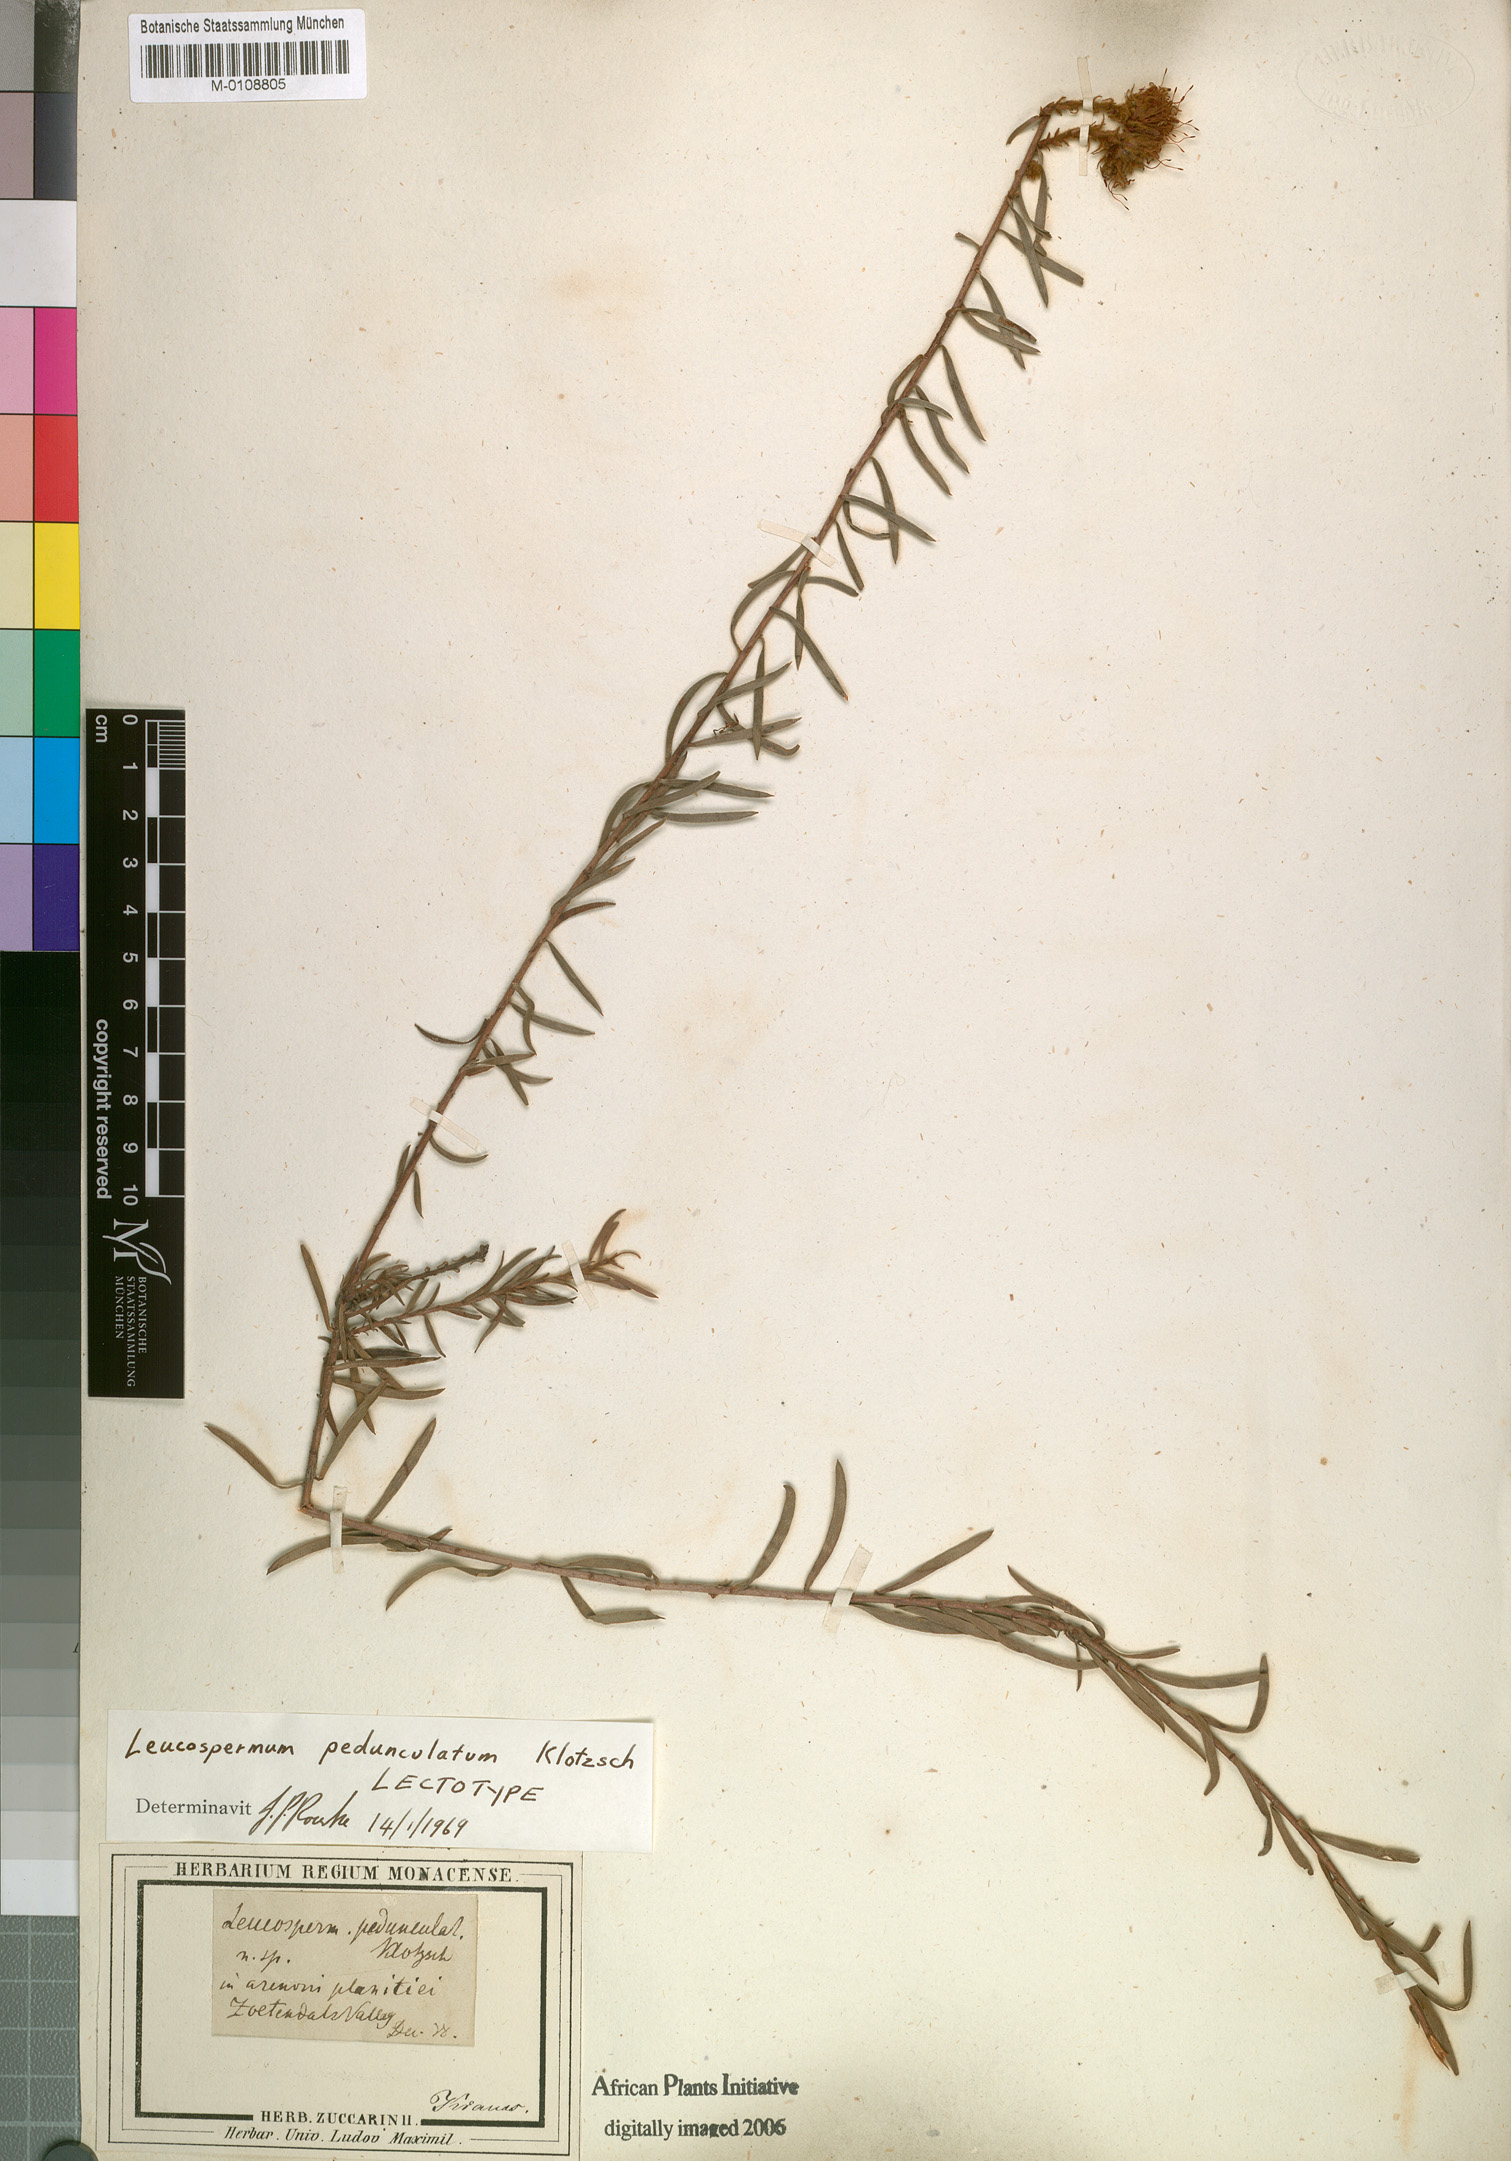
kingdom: Plantae
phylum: Tracheophyta
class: Magnoliopsida
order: Proteales
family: Proteaceae
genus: Leucospermum
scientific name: Leucospermum pedunculatum
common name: White-trailing pincushion
